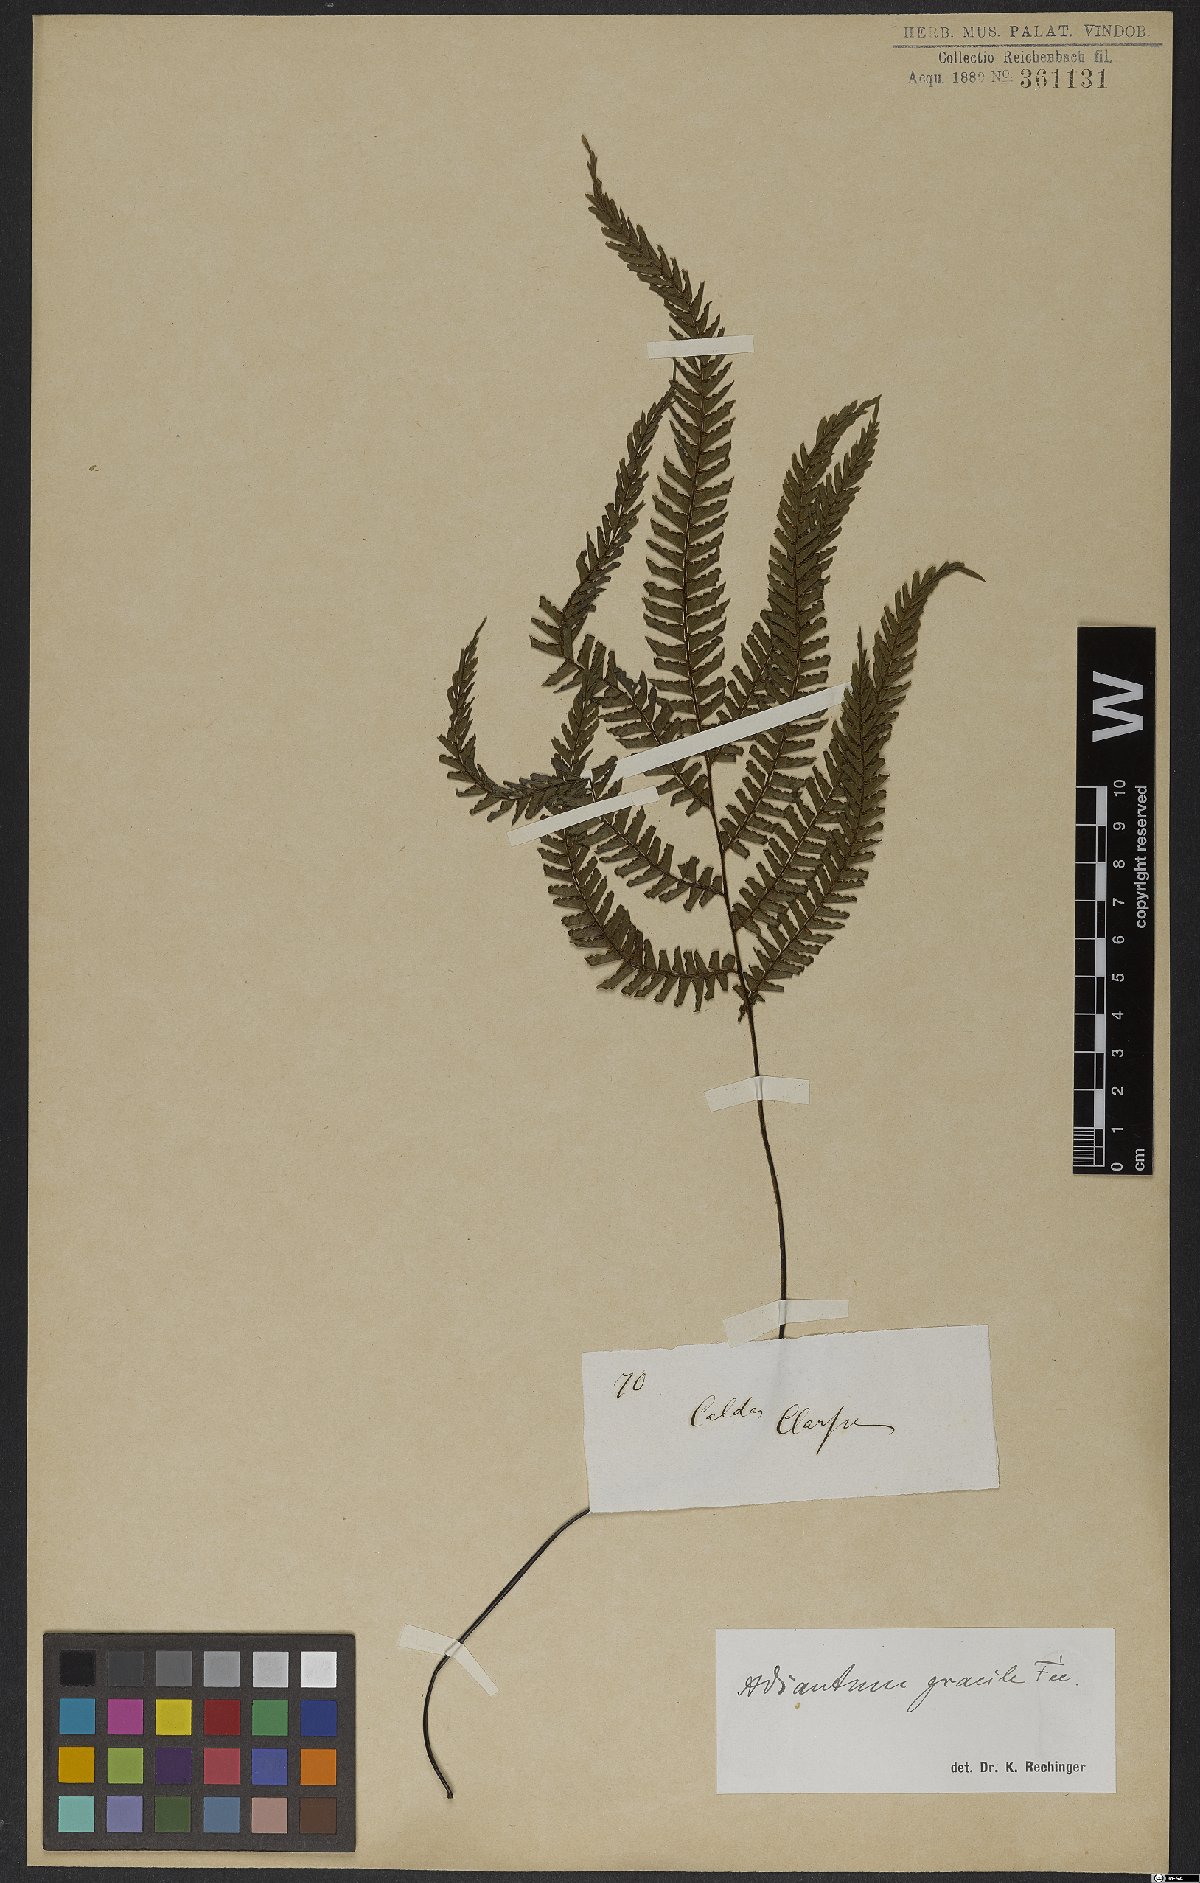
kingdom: Plantae
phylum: Tracheophyta
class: Polypodiopsida
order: Polypodiales
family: Pteridaceae
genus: Adiantum
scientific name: Adiantum gracile
